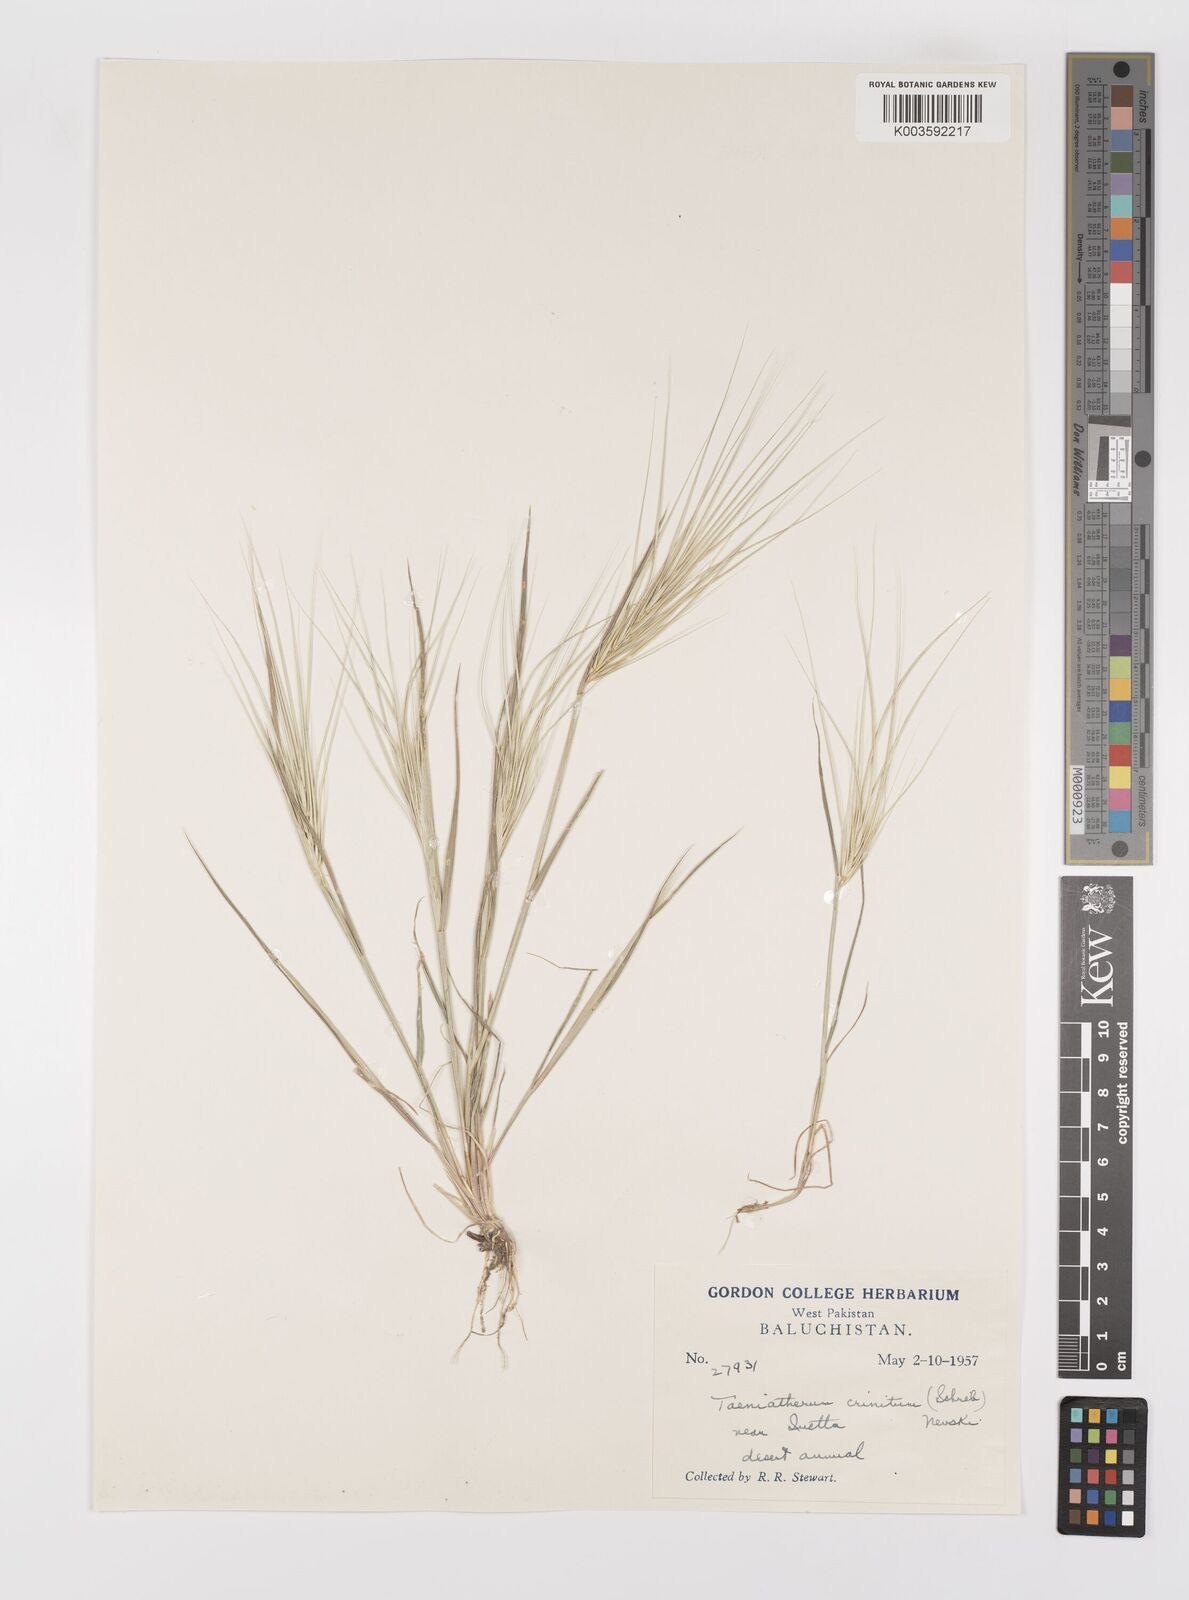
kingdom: Plantae
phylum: Tracheophyta
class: Liliopsida
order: Poales
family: Poaceae
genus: Taeniatherum
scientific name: Taeniatherum caput-medusae
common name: Medusahead
